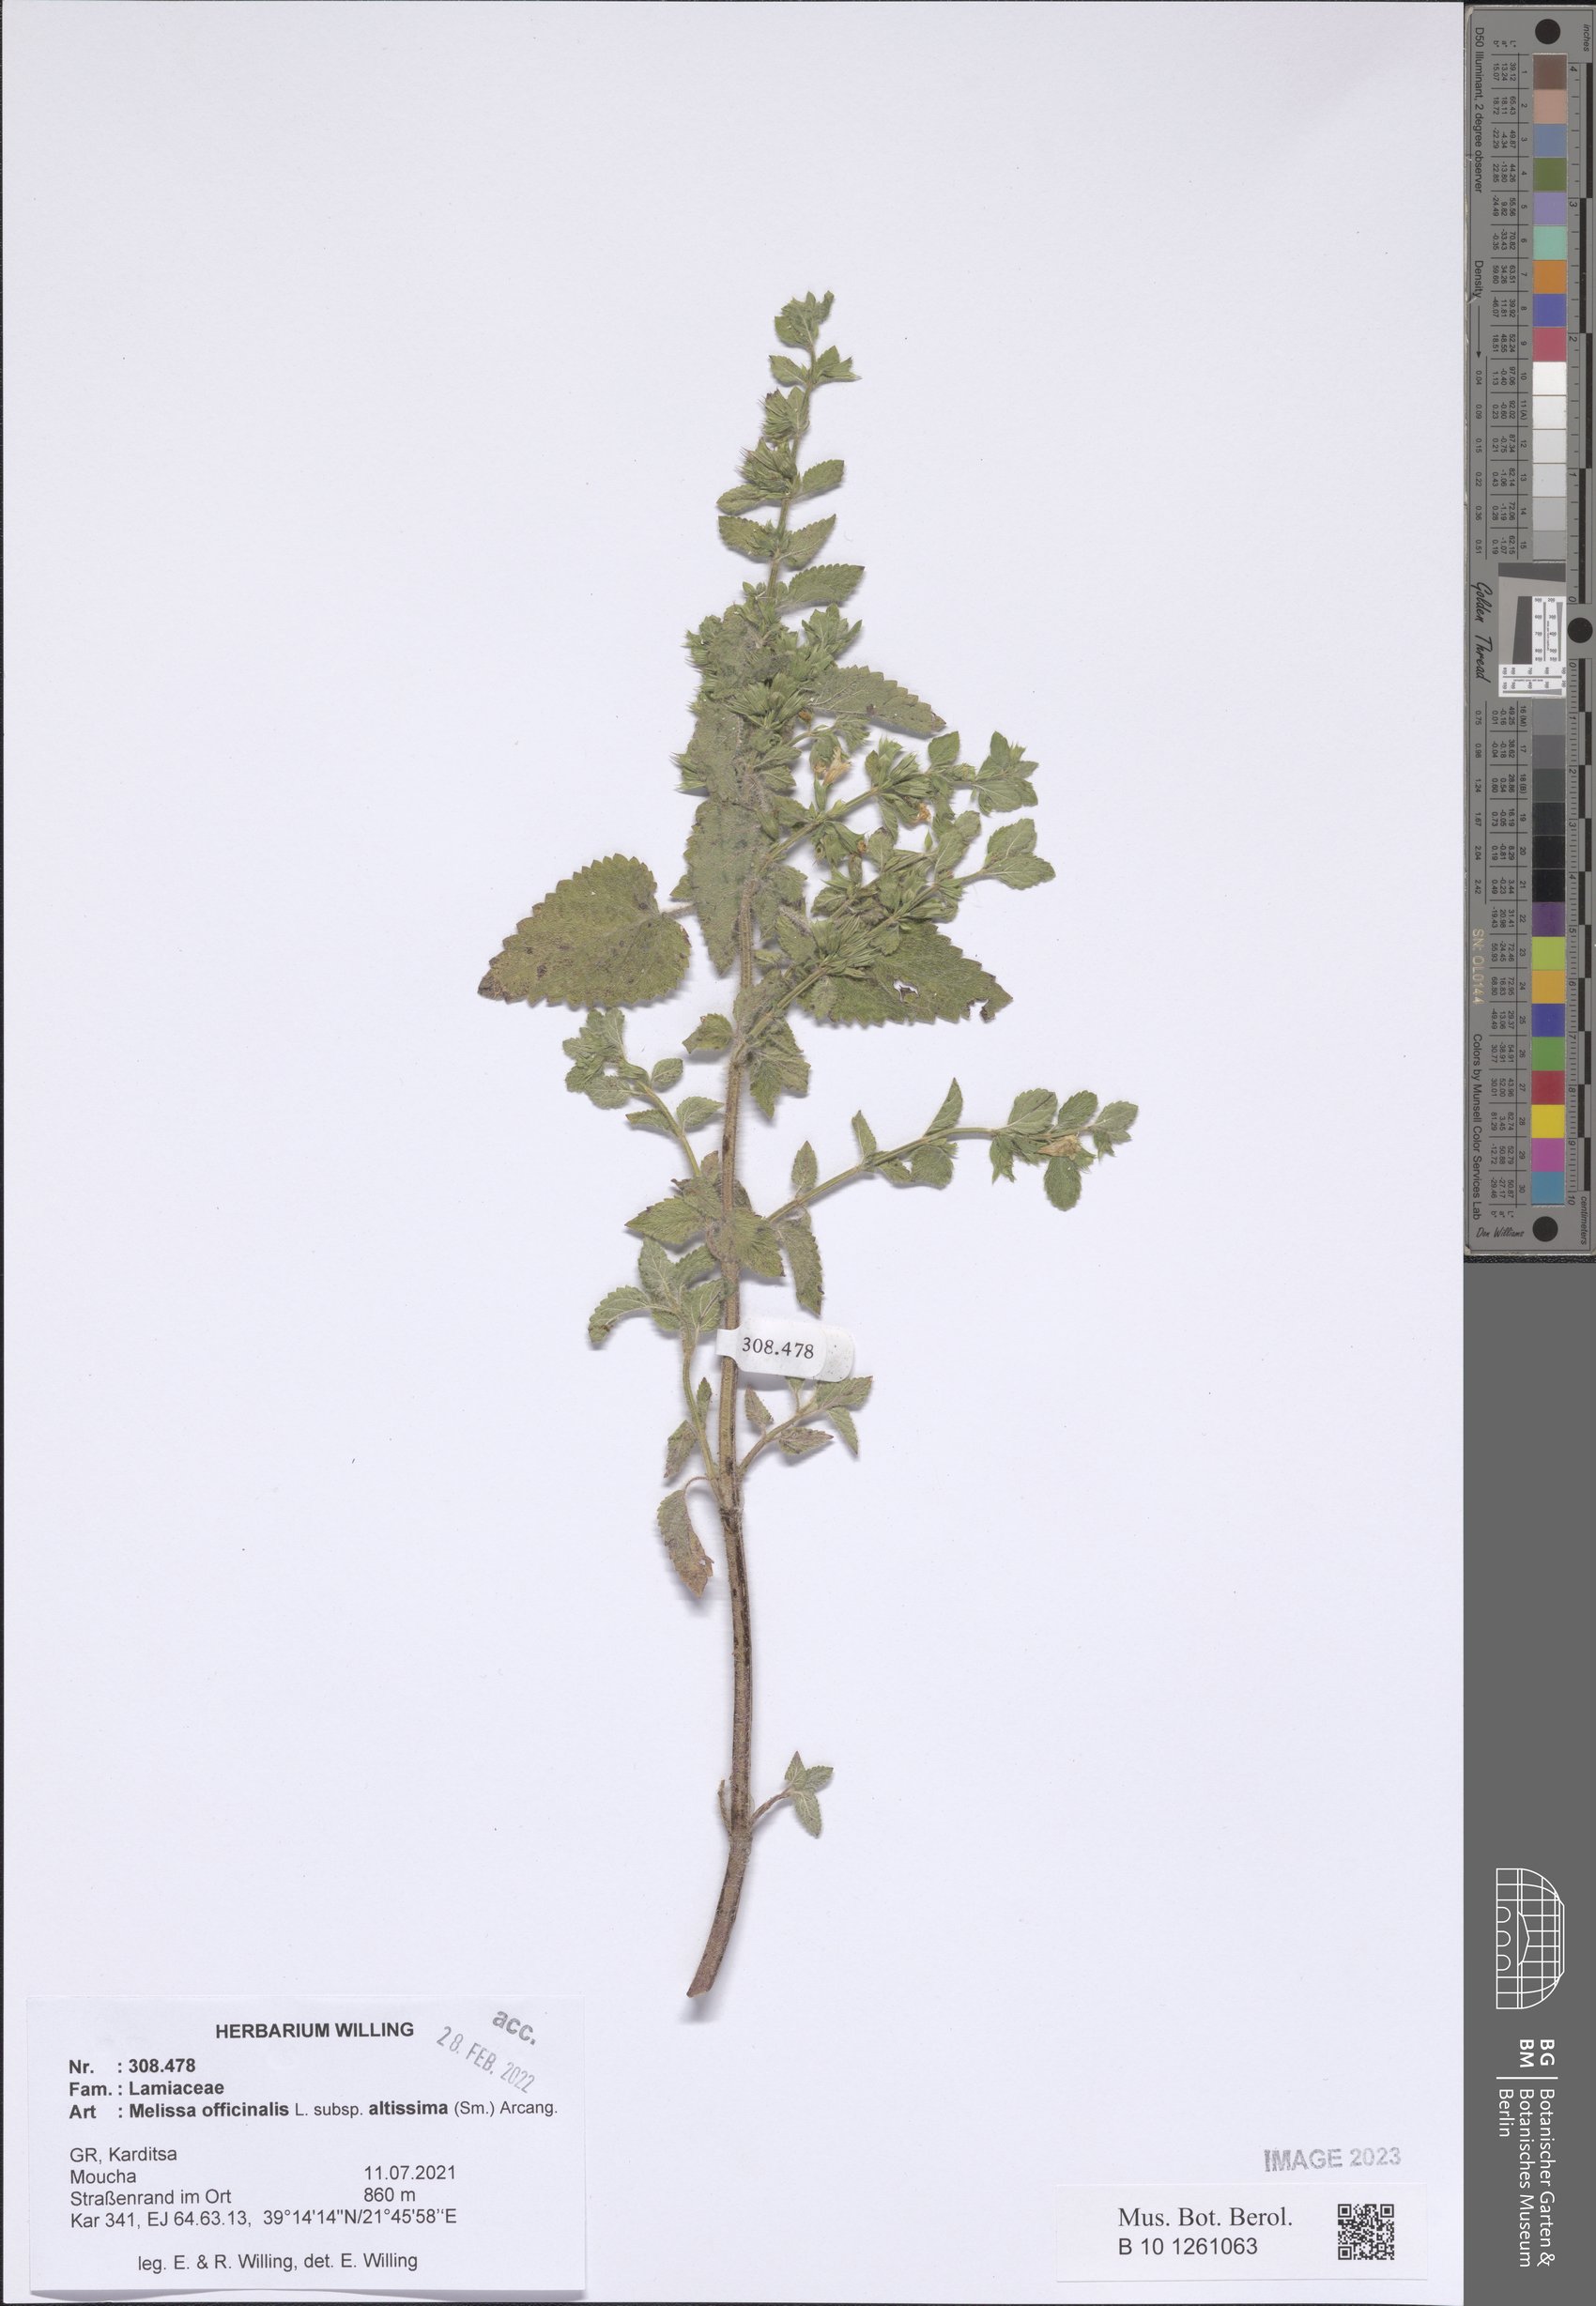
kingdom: Plantae
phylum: Tracheophyta
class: Magnoliopsida
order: Lamiales
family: Lamiaceae
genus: Melissa
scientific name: Melissa officinalis
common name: Balm
